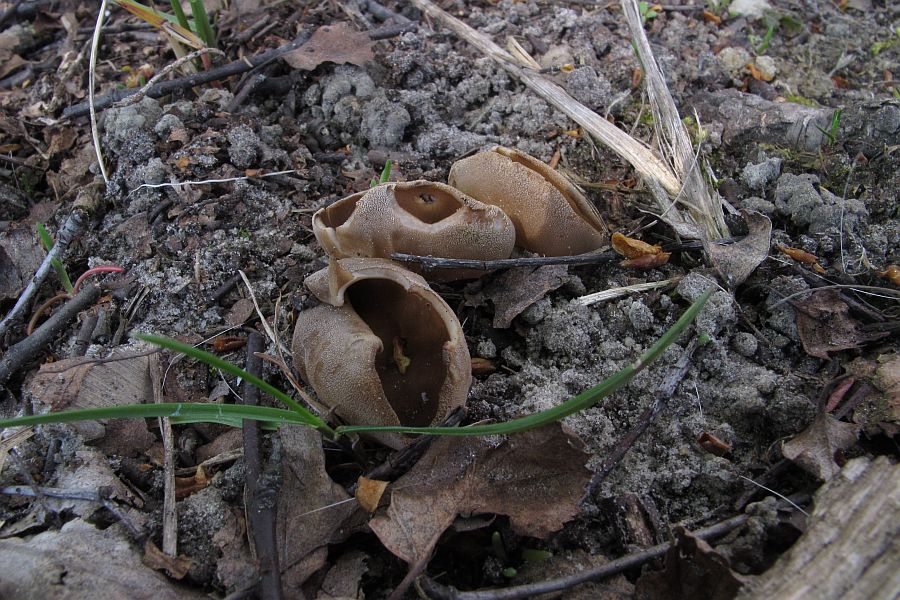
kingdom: Fungi
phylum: Ascomycota
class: Pezizomycetes
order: Pezizales
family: Helvellaceae
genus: Helvella
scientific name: Helvella acetabulum
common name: pokal-foldhat
